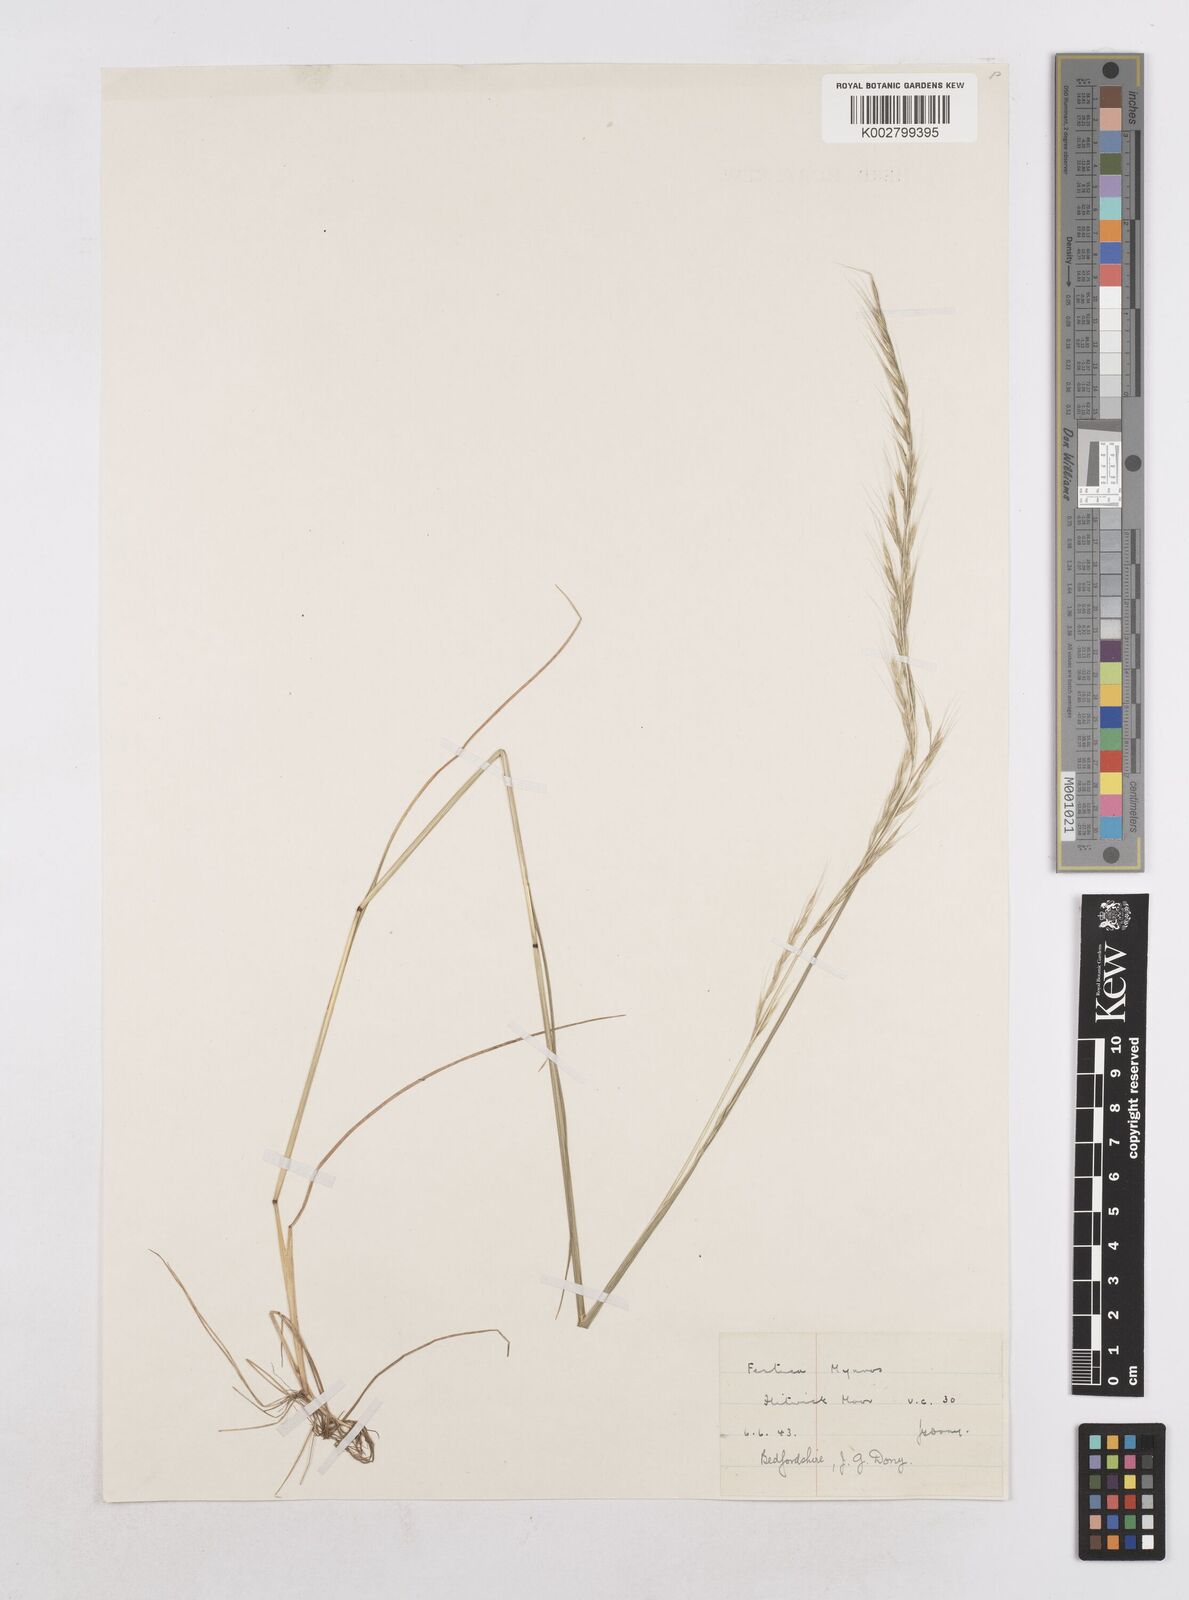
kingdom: Plantae
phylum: Tracheophyta
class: Liliopsida
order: Poales
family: Poaceae
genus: Festuca
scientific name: Festuca myuros
